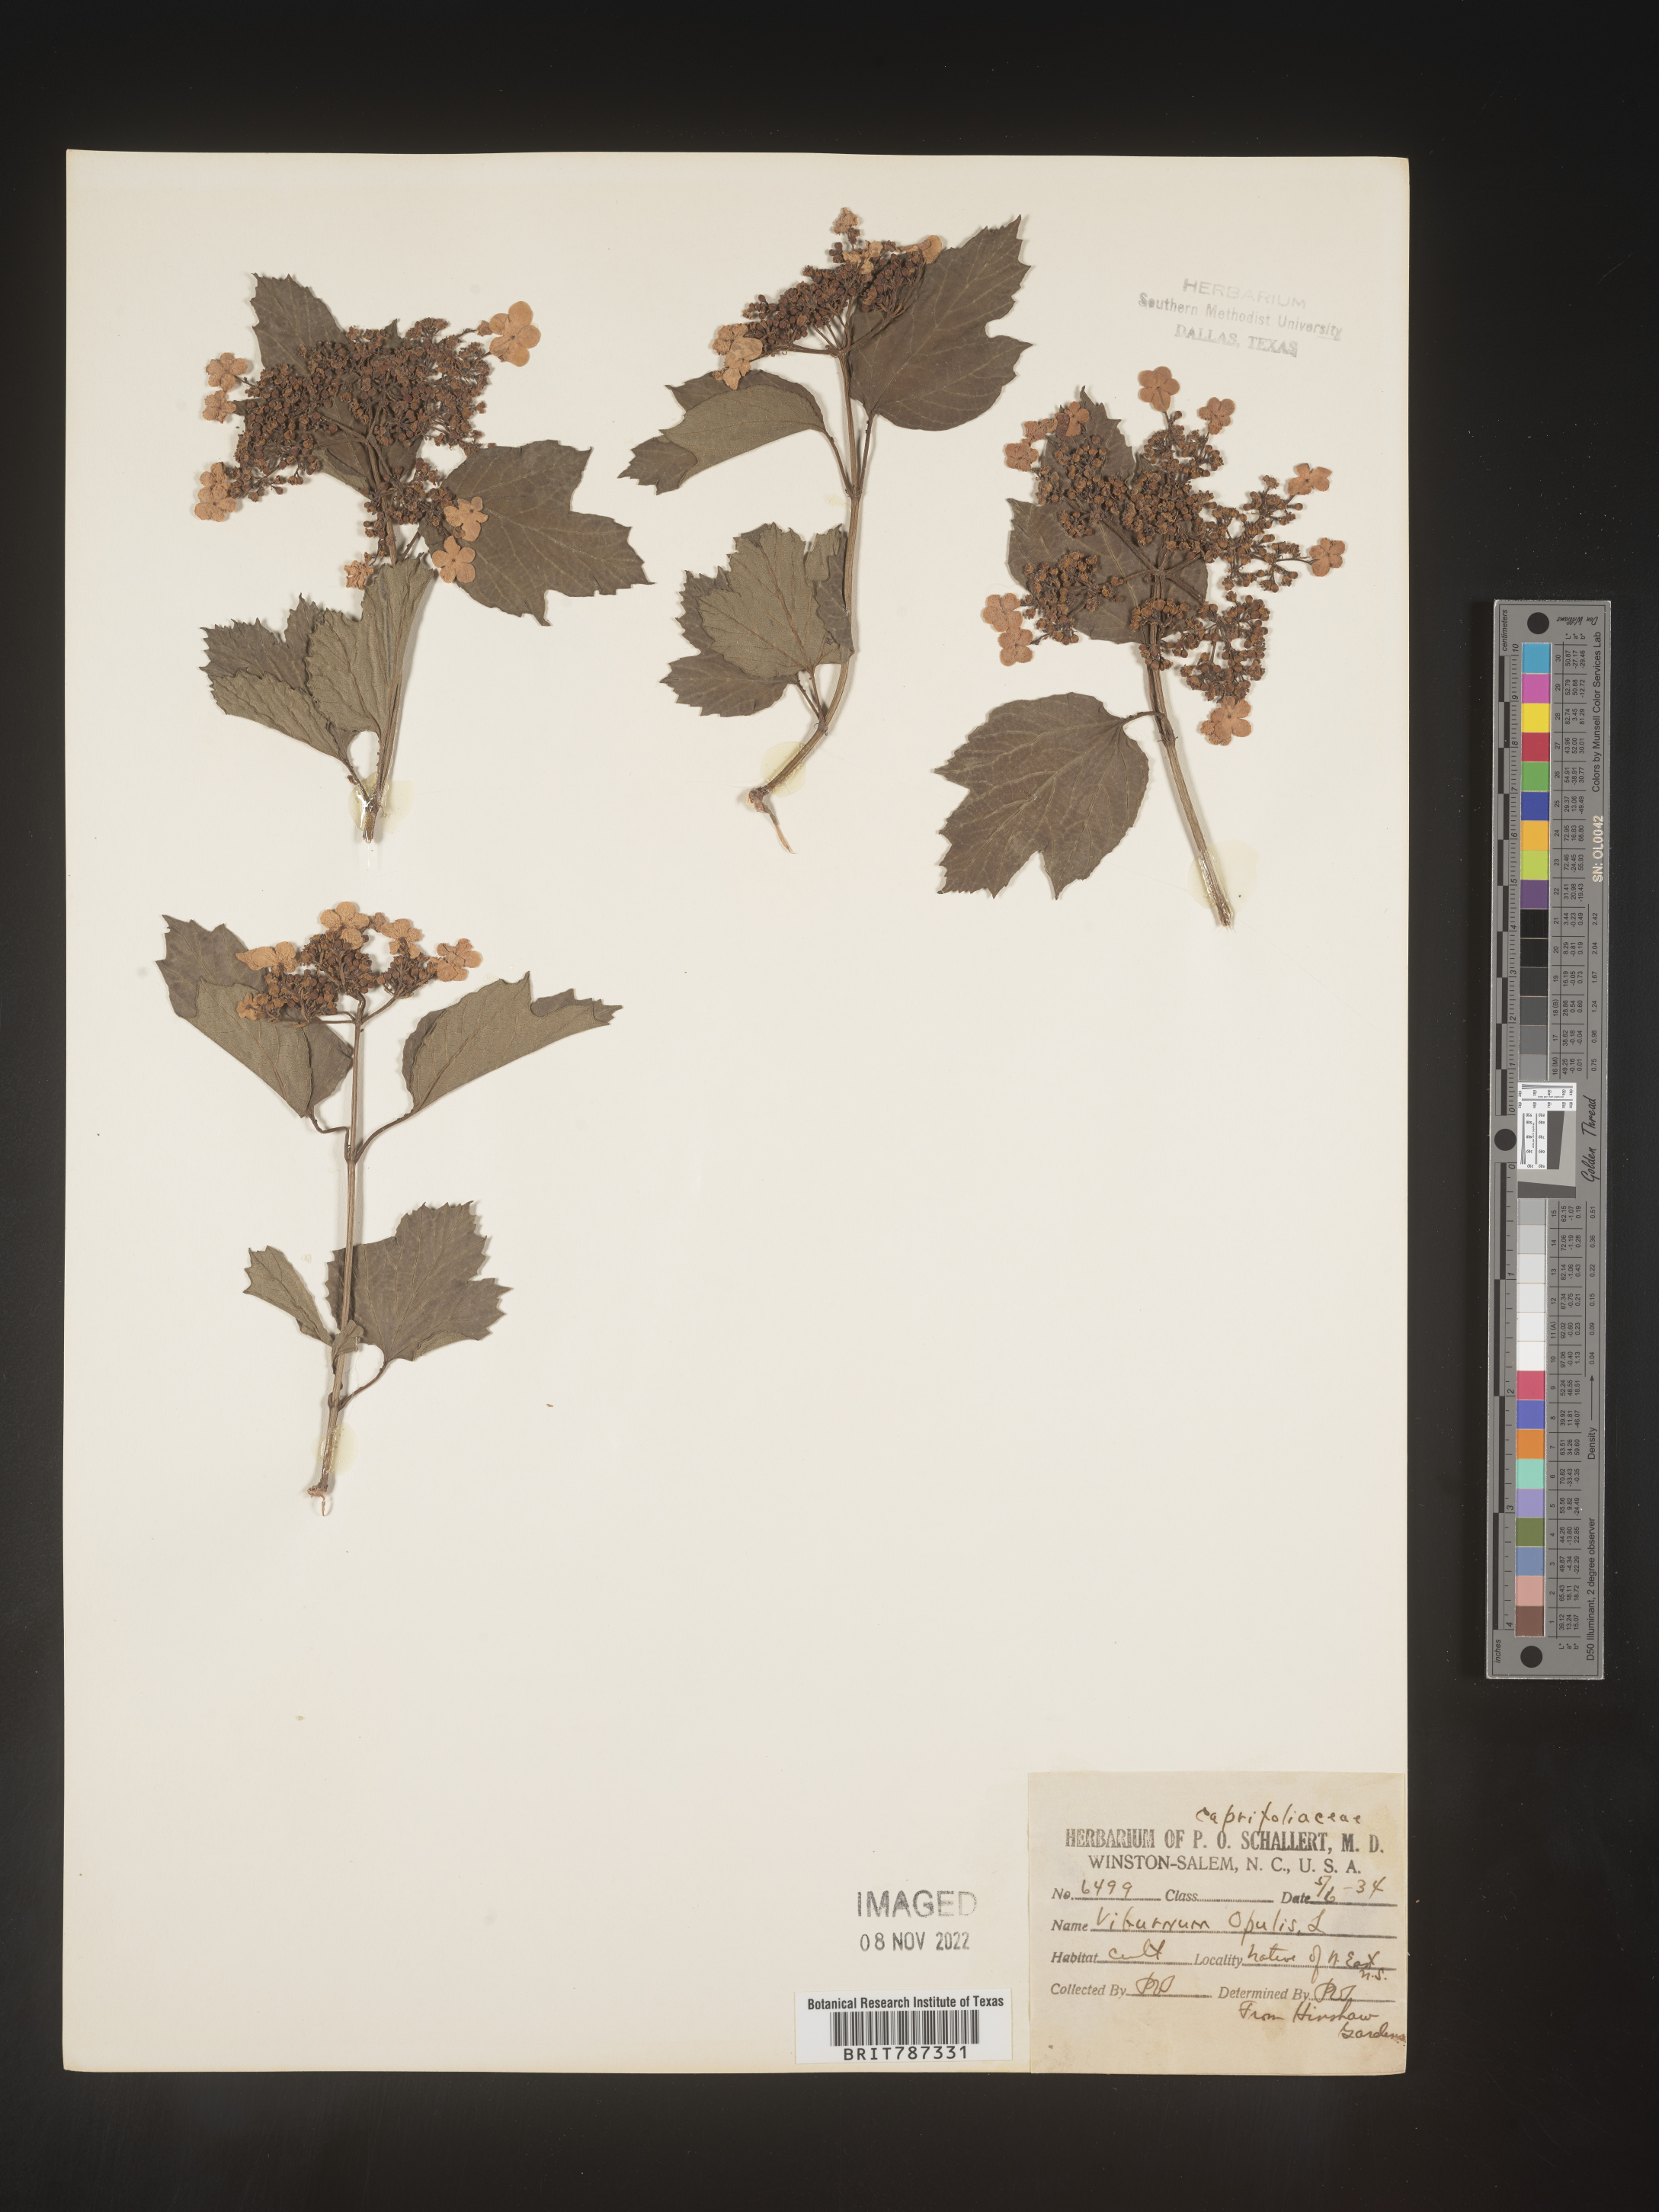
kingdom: Plantae
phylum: Tracheophyta
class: Magnoliopsida
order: Dipsacales
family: Viburnaceae
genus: Viburnum
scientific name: Viburnum
